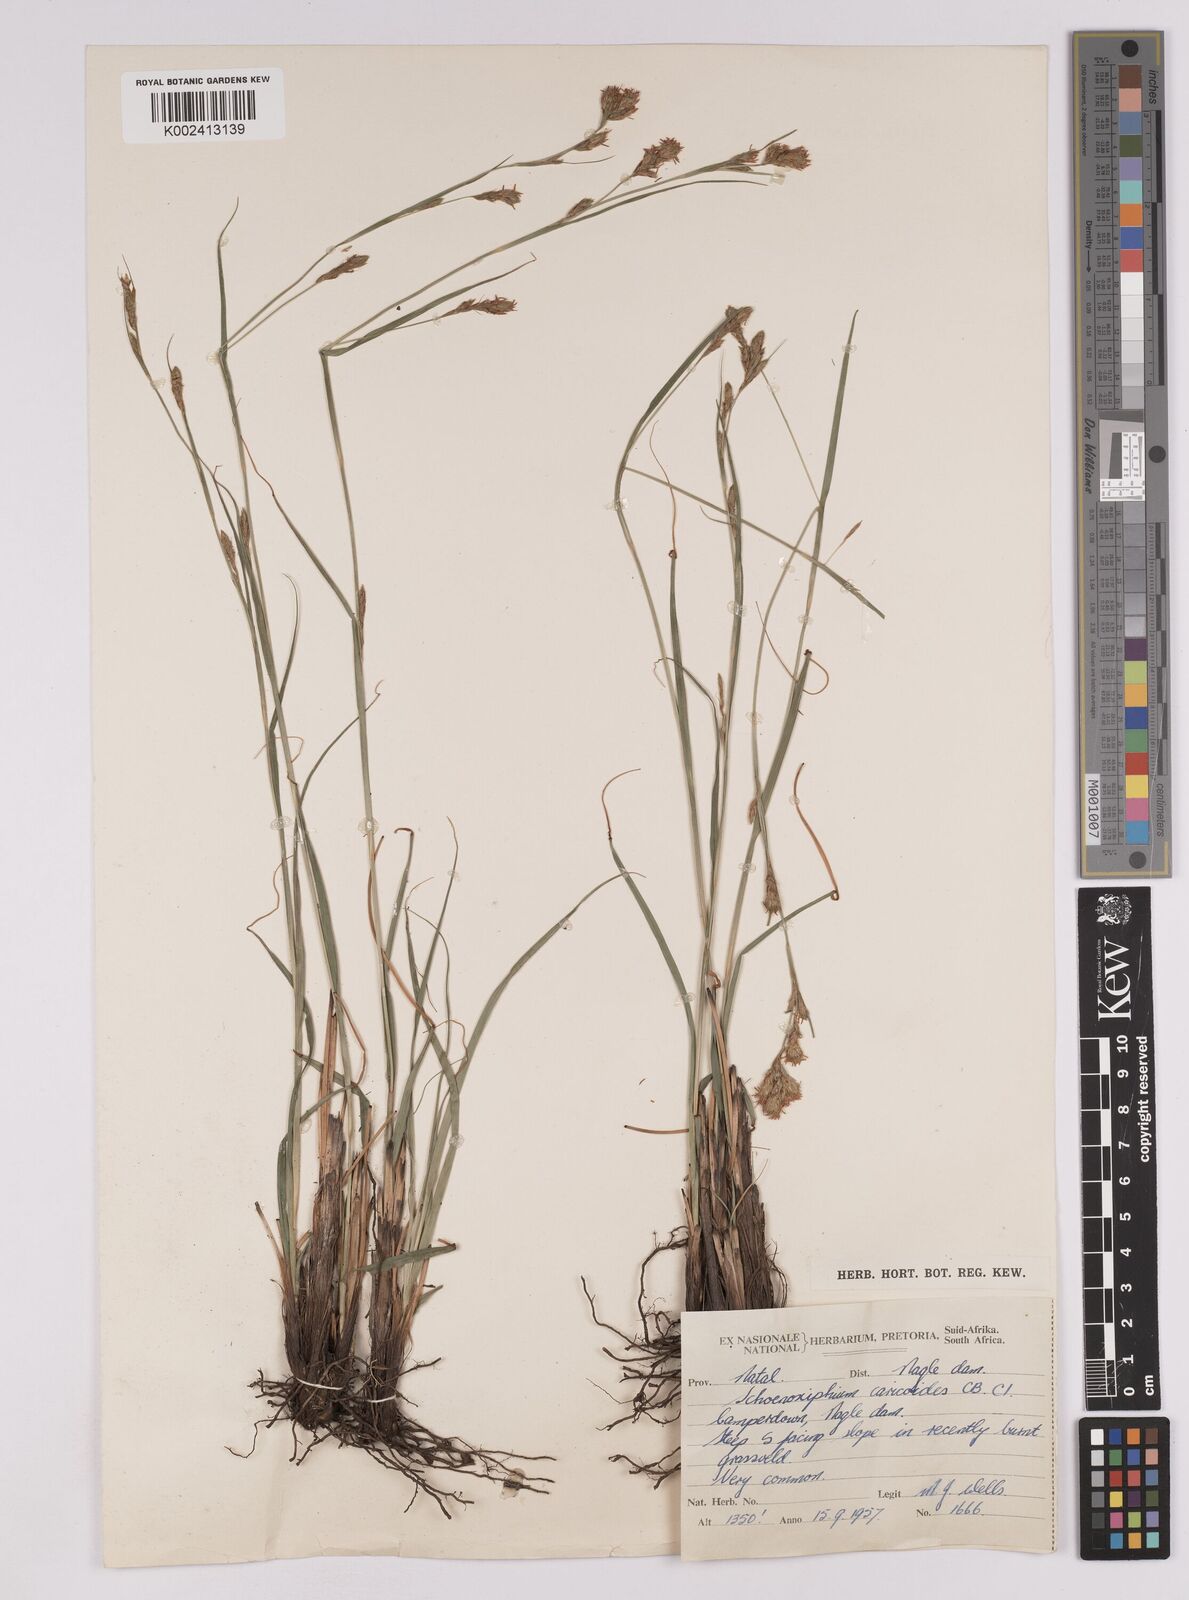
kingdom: Plantae
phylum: Tracheophyta
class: Liliopsida
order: Poales
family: Cyperaceae
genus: Carex
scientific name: Carex spartea
